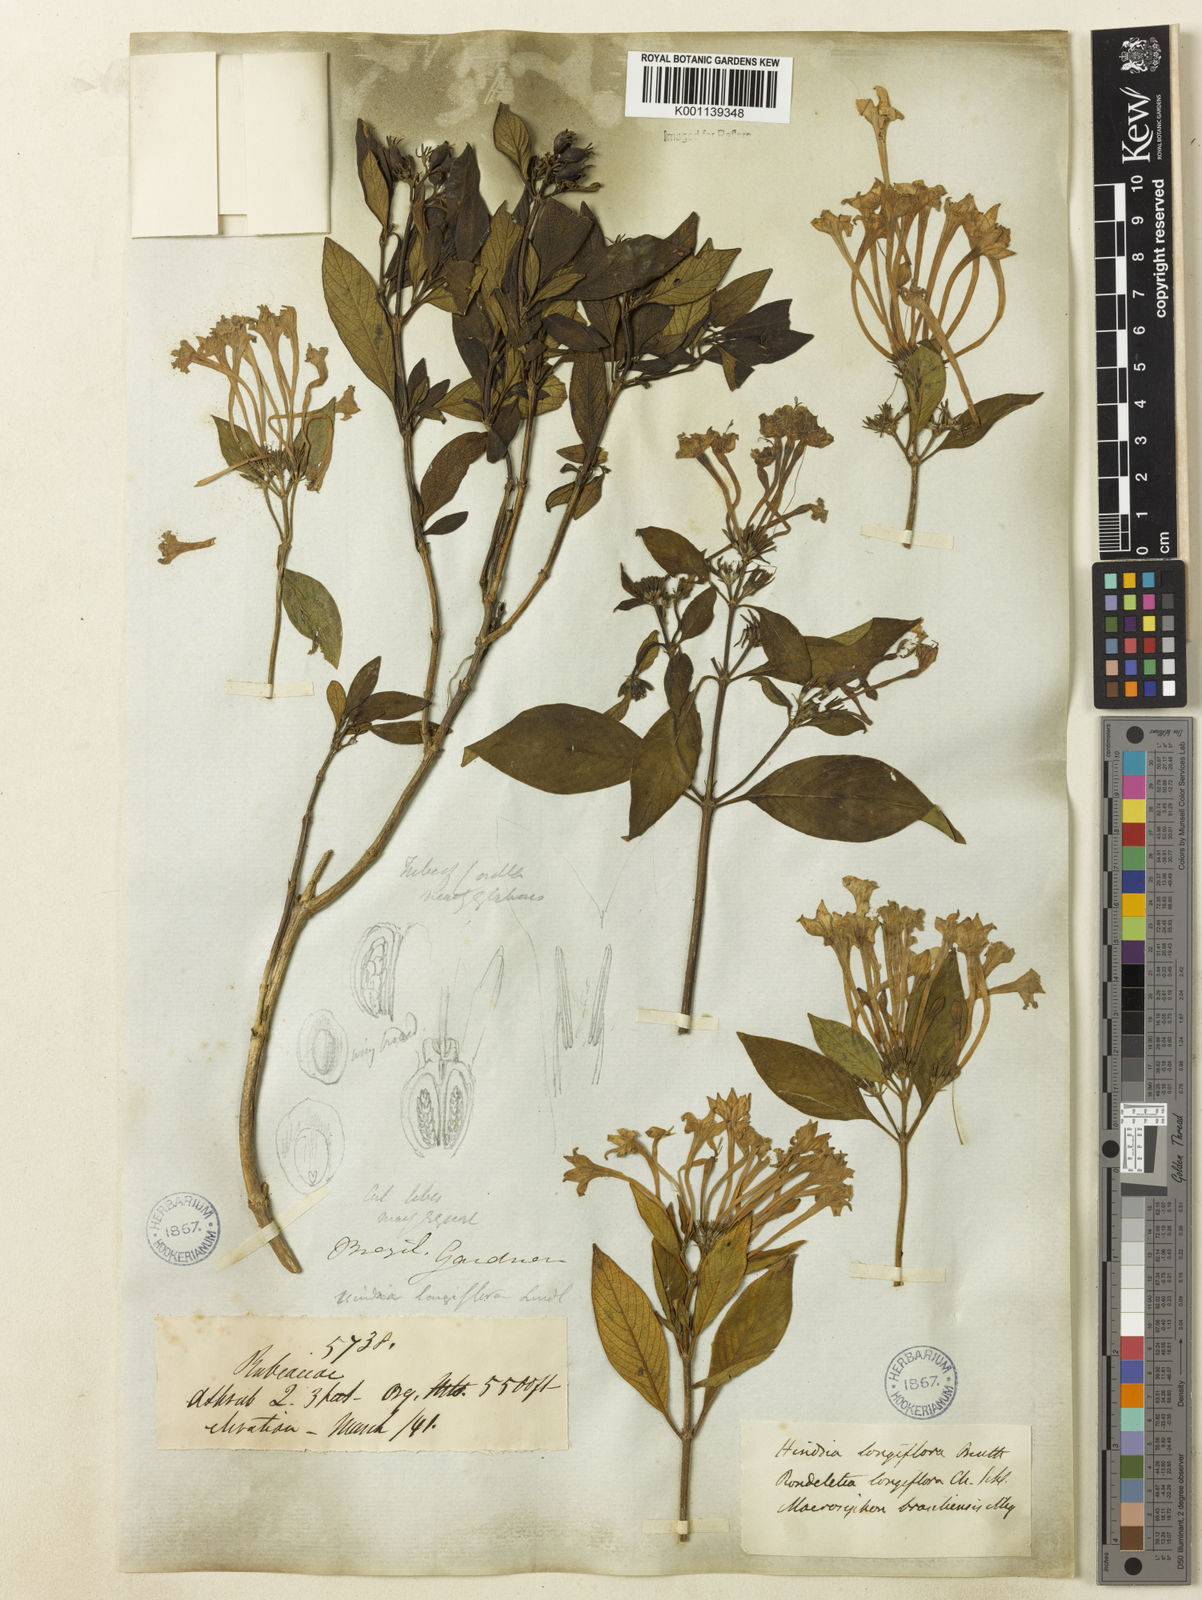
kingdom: Plantae
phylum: Tracheophyta
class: Magnoliopsida
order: Gentianales
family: Rubiaceae
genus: Hindsia
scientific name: Hindsia
